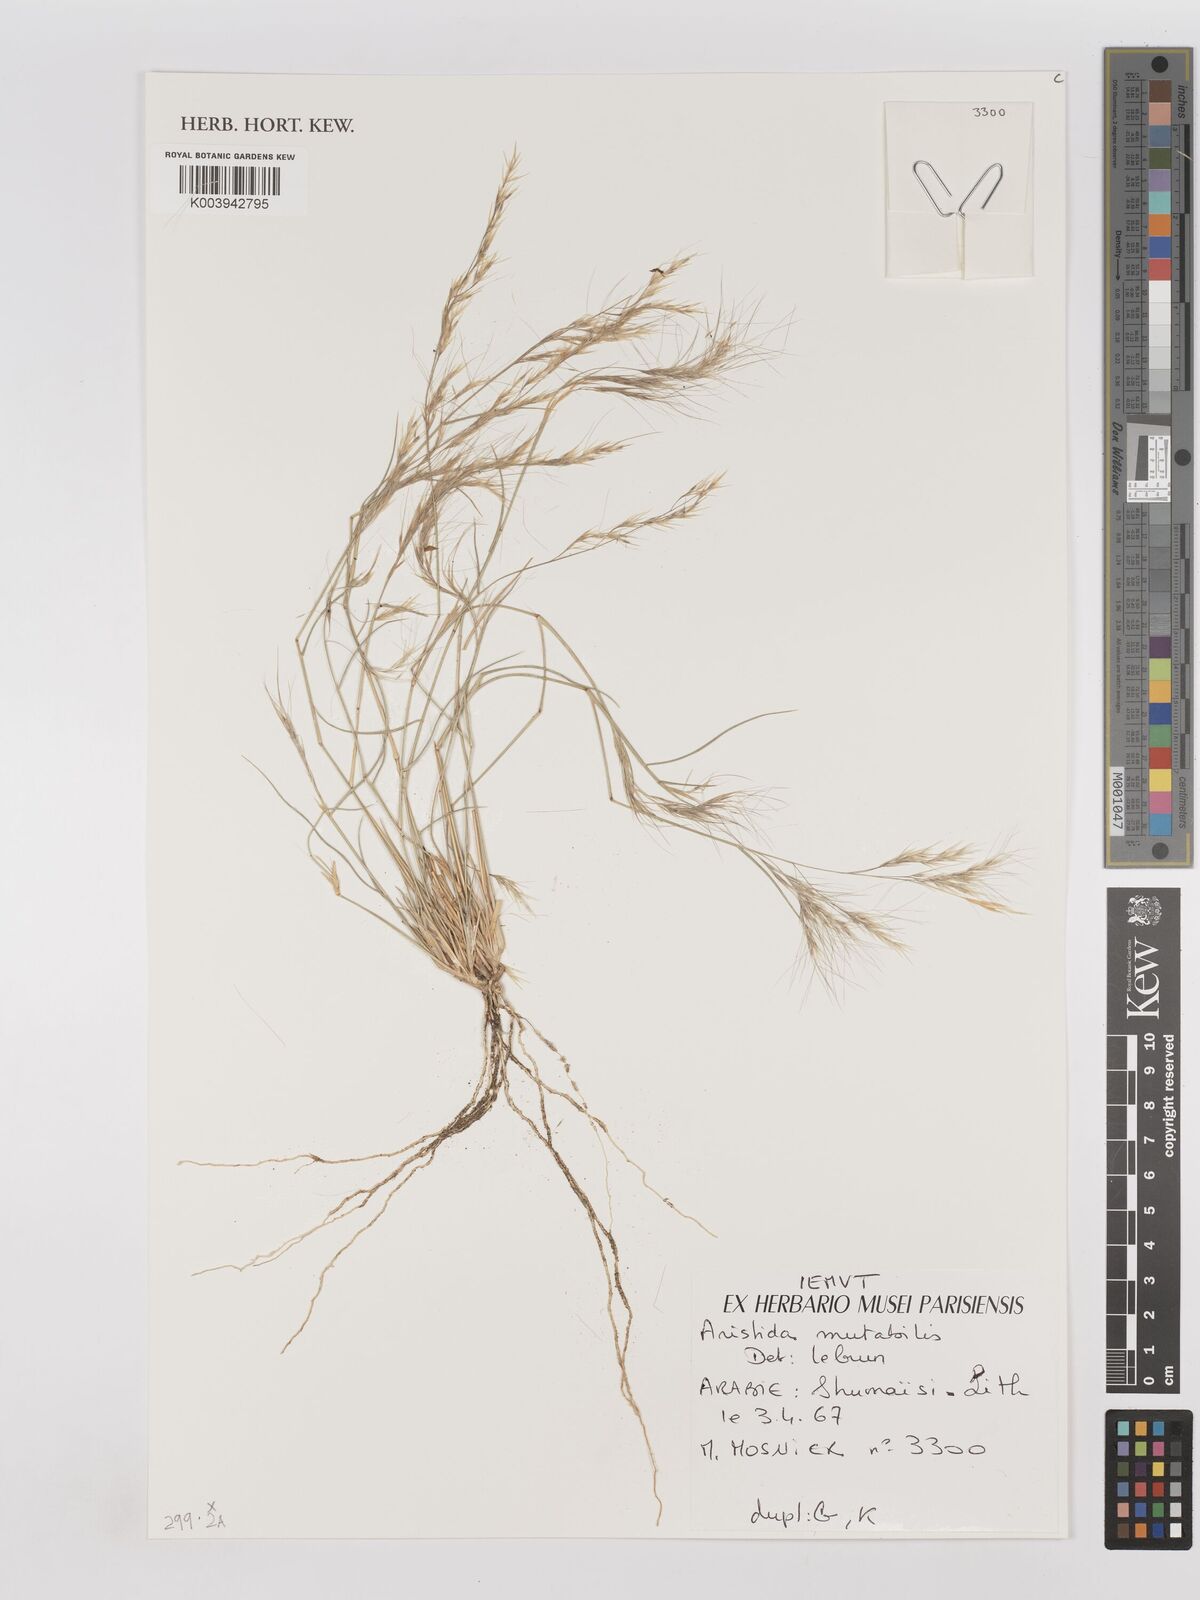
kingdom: Plantae
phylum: Tracheophyta
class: Liliopsida
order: Poales
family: Poaceae
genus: Aristida
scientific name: Aristida mutabilis
